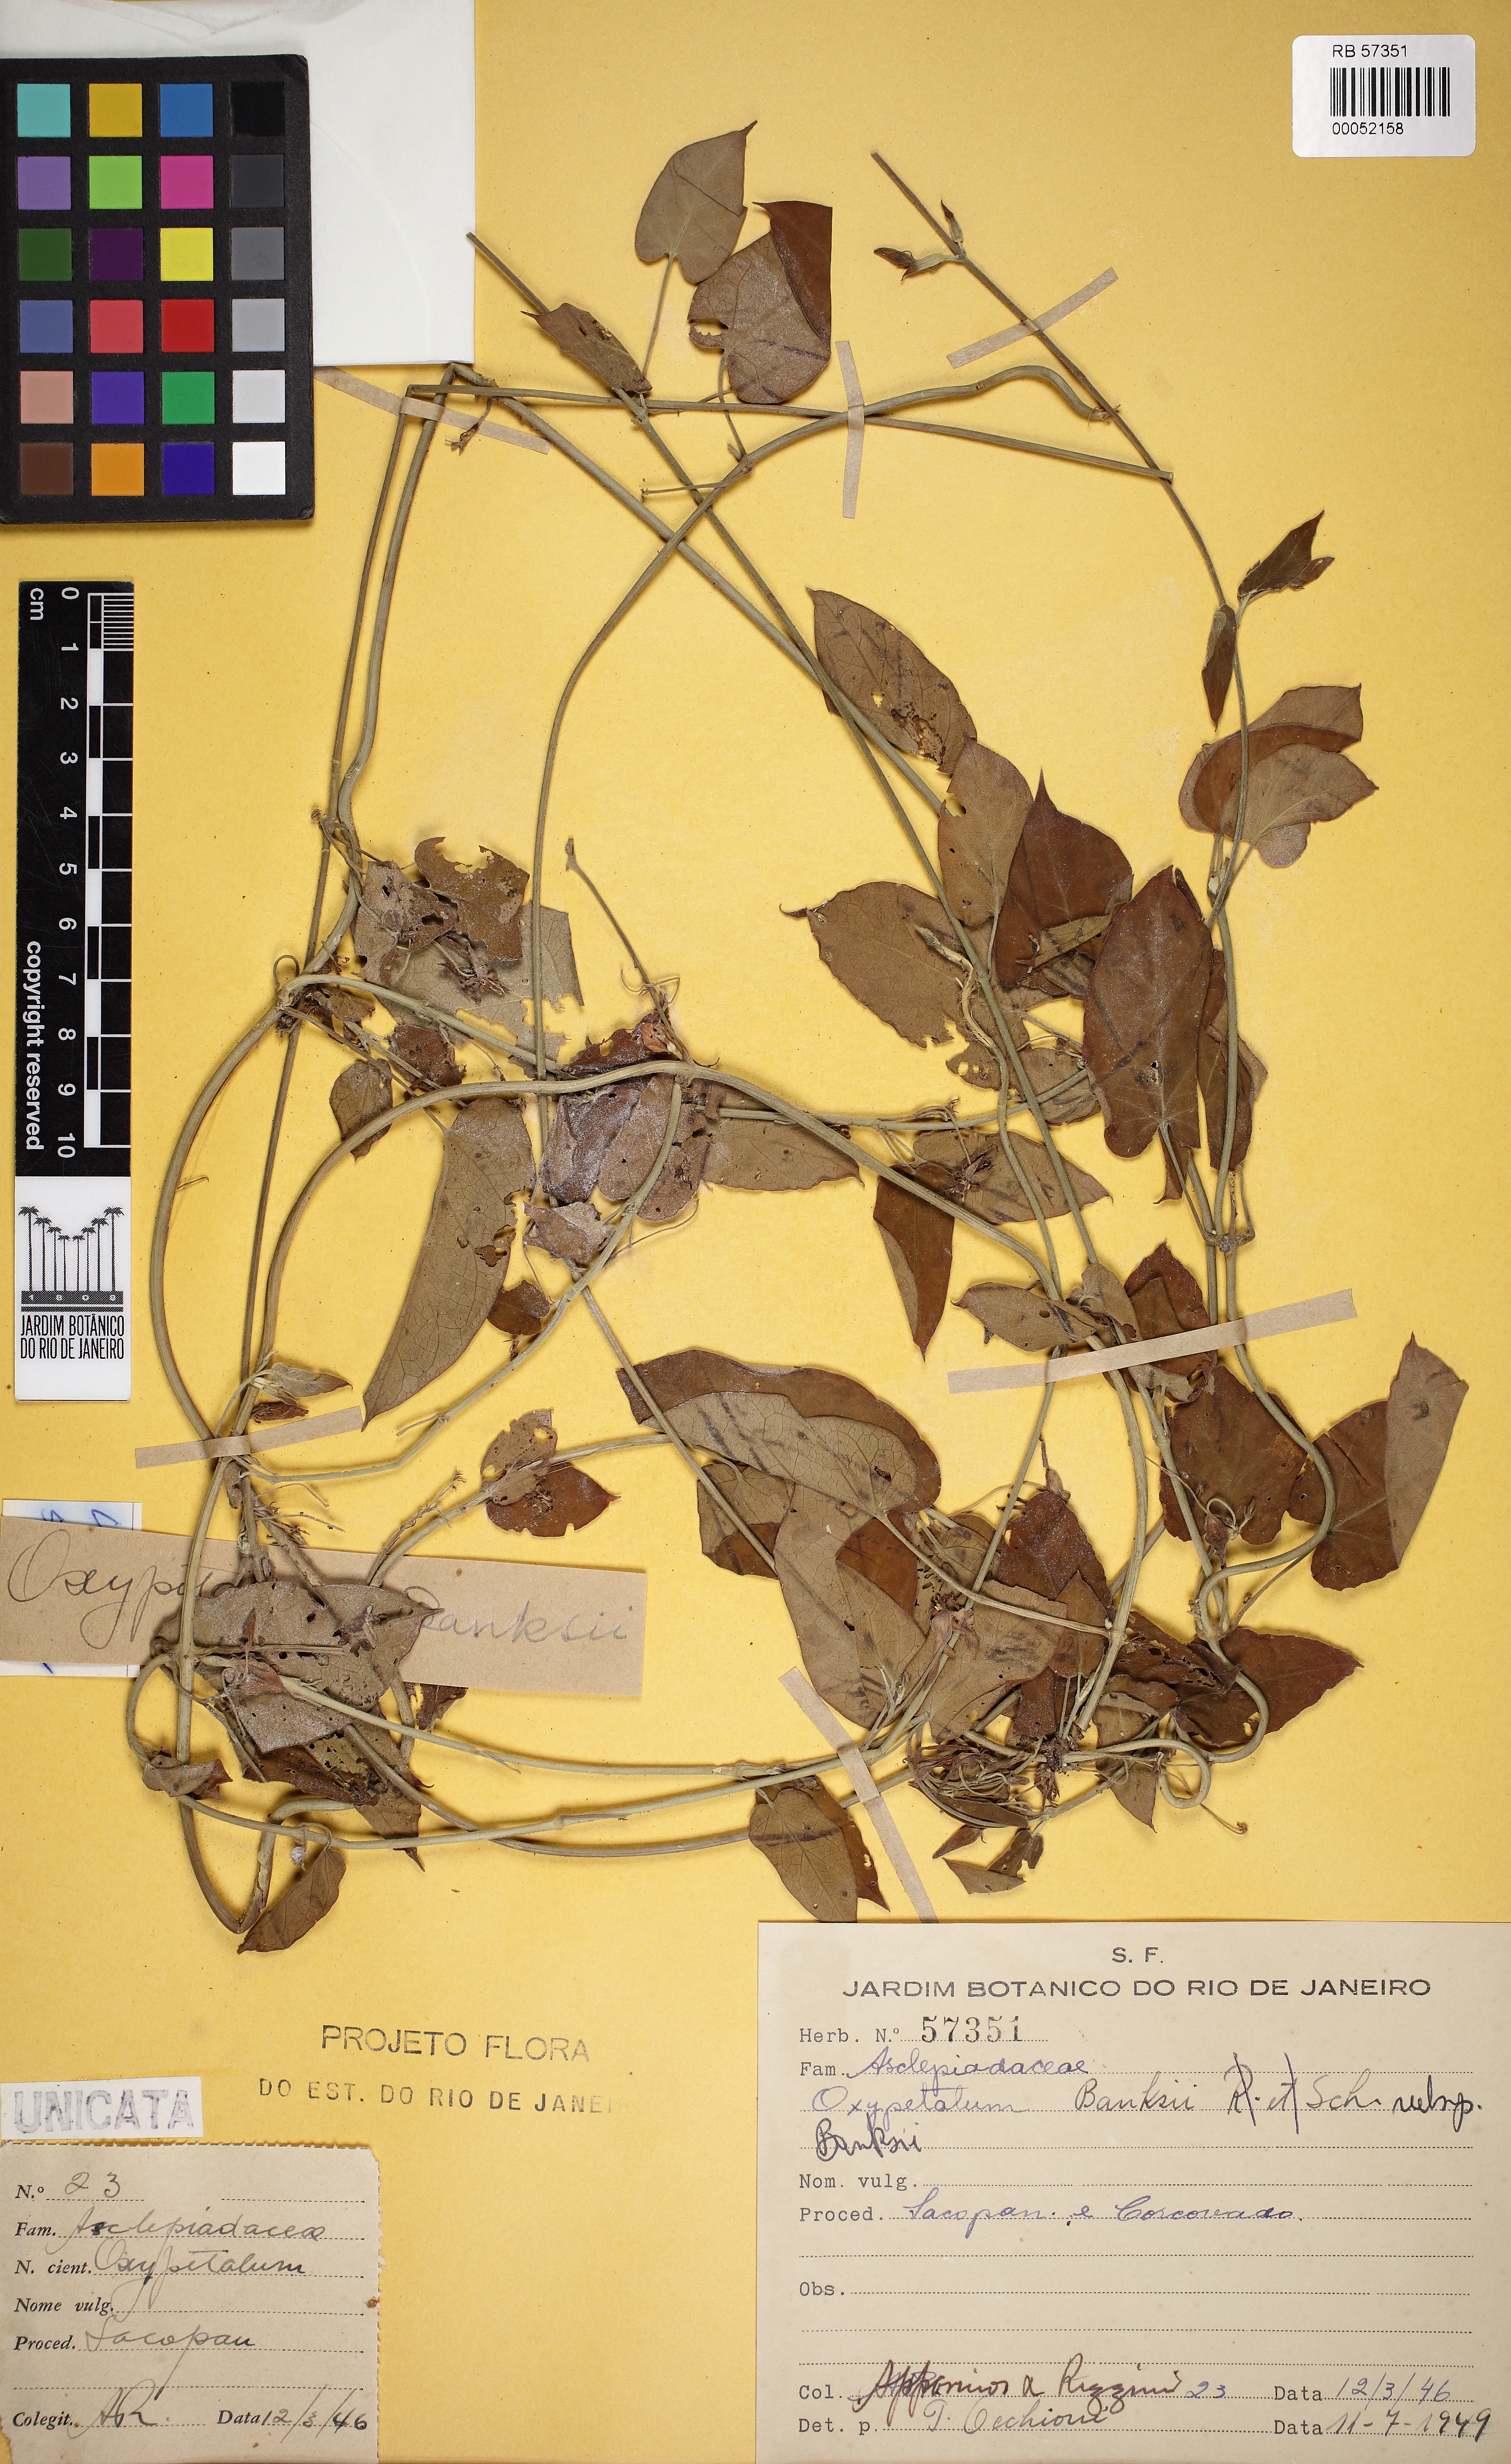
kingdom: Plantae
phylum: Tracheophyta
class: Magnoliopsida
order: Gentianales
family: Apocynaceae
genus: Oxypetalum
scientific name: Oxypetalum banksii
